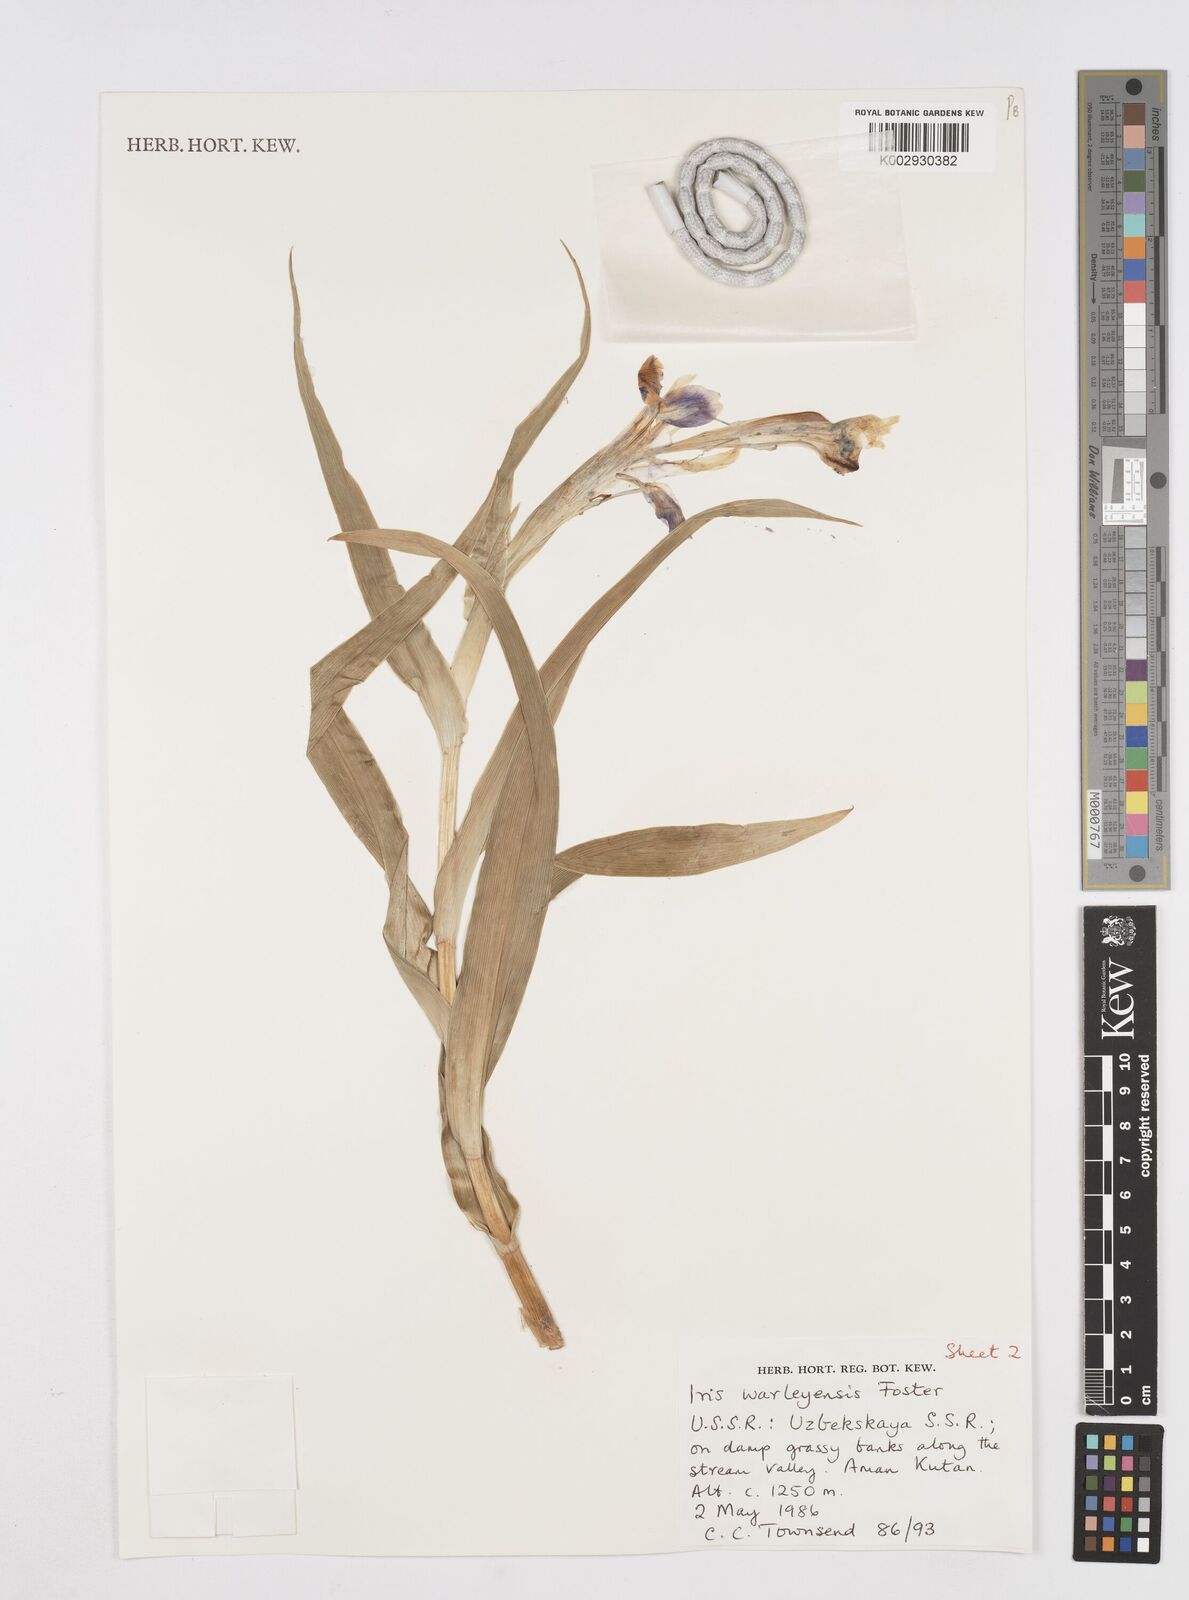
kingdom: Plantae
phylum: Tracheophyta
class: Liliopsida
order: Asparagales
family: Iridaceae
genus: Iris
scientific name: Iris warleyensis
